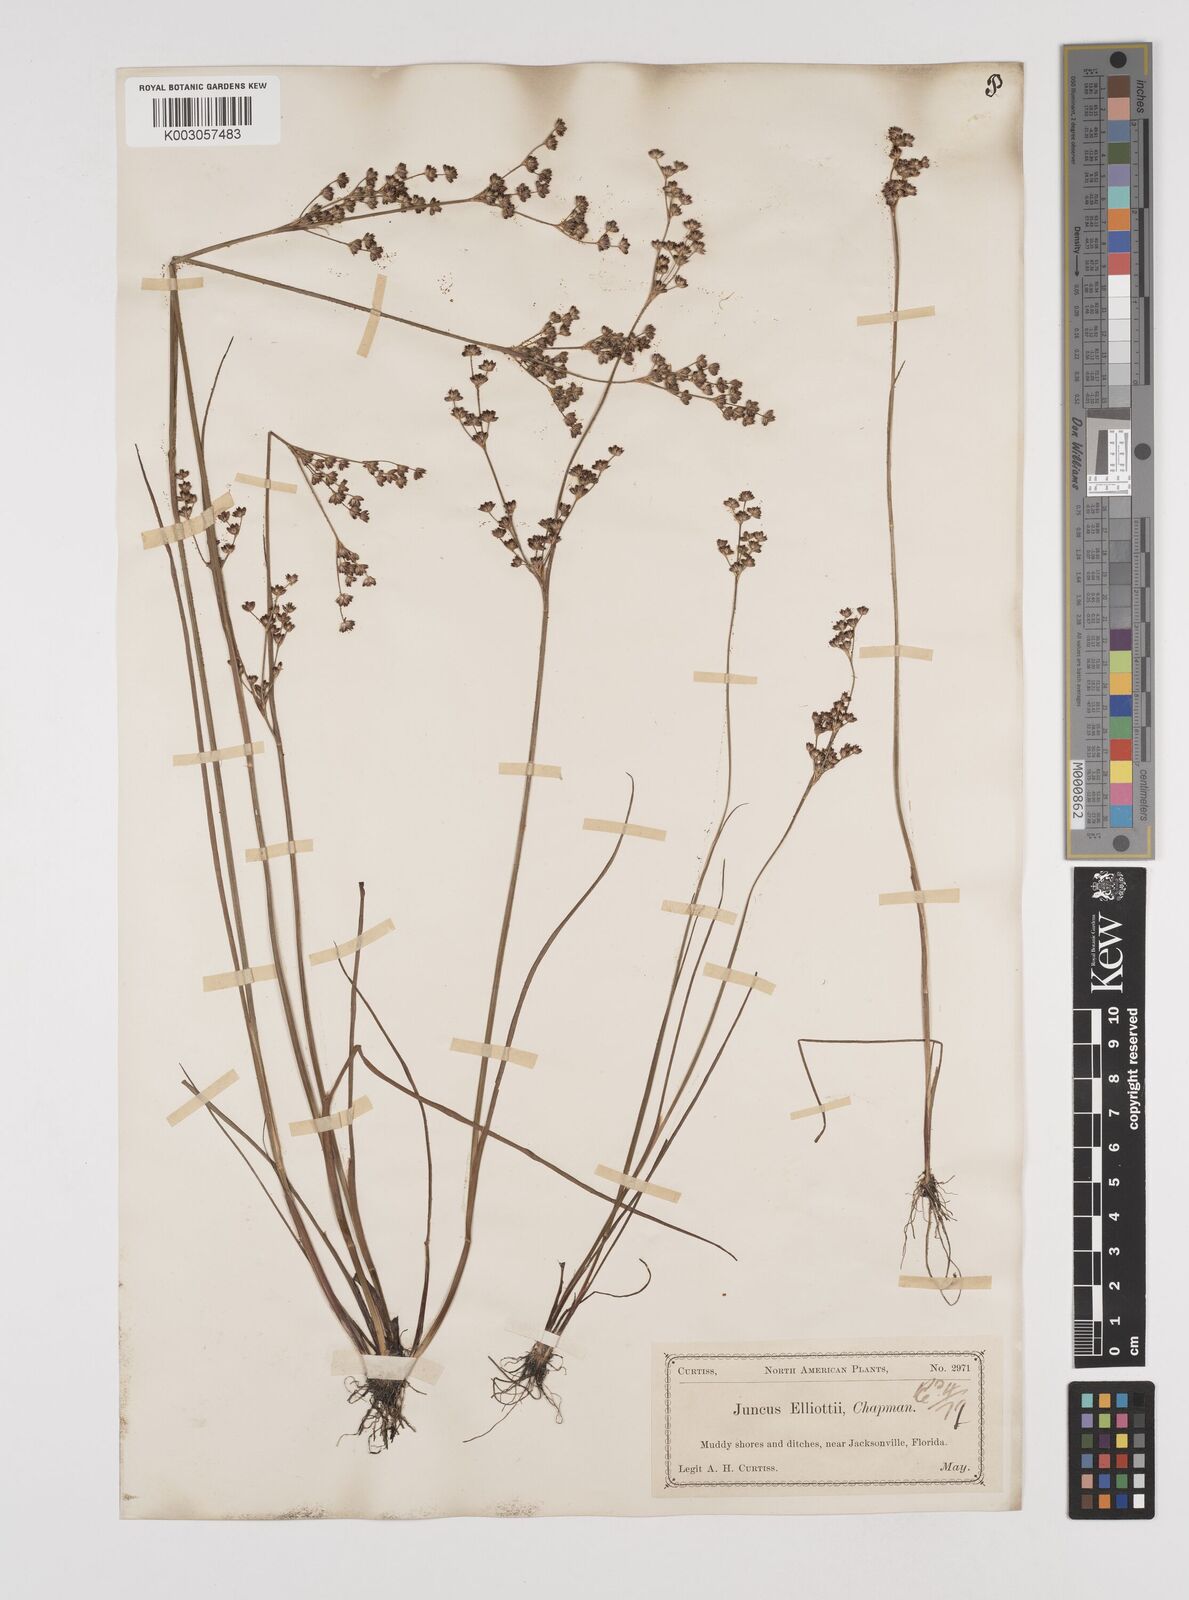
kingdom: Plantae
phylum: Tracheophyta
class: Liliopsida
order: Poales
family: Juncaceae
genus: Juncus
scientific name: Juncus elliottii
